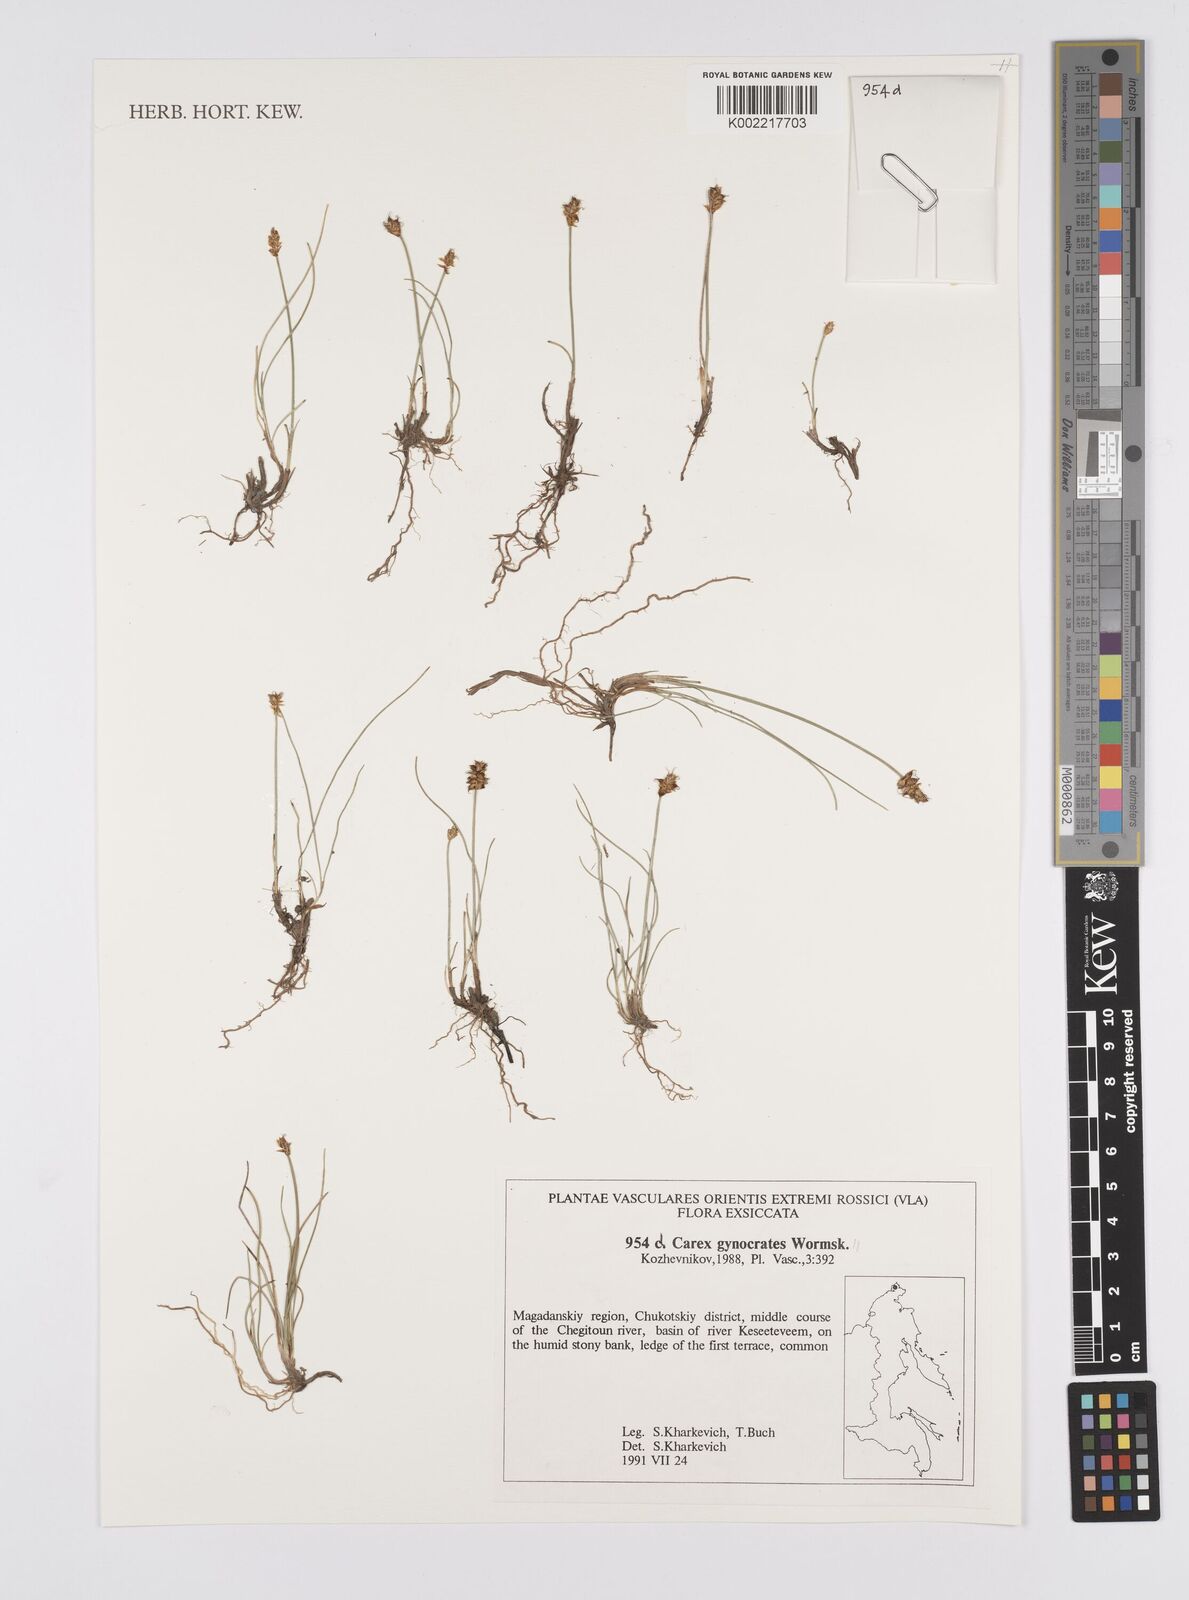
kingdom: Plantae
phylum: Tracheophyta
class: Liliopsida
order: Poales
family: Cyperaceae
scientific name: Cyperaceae
